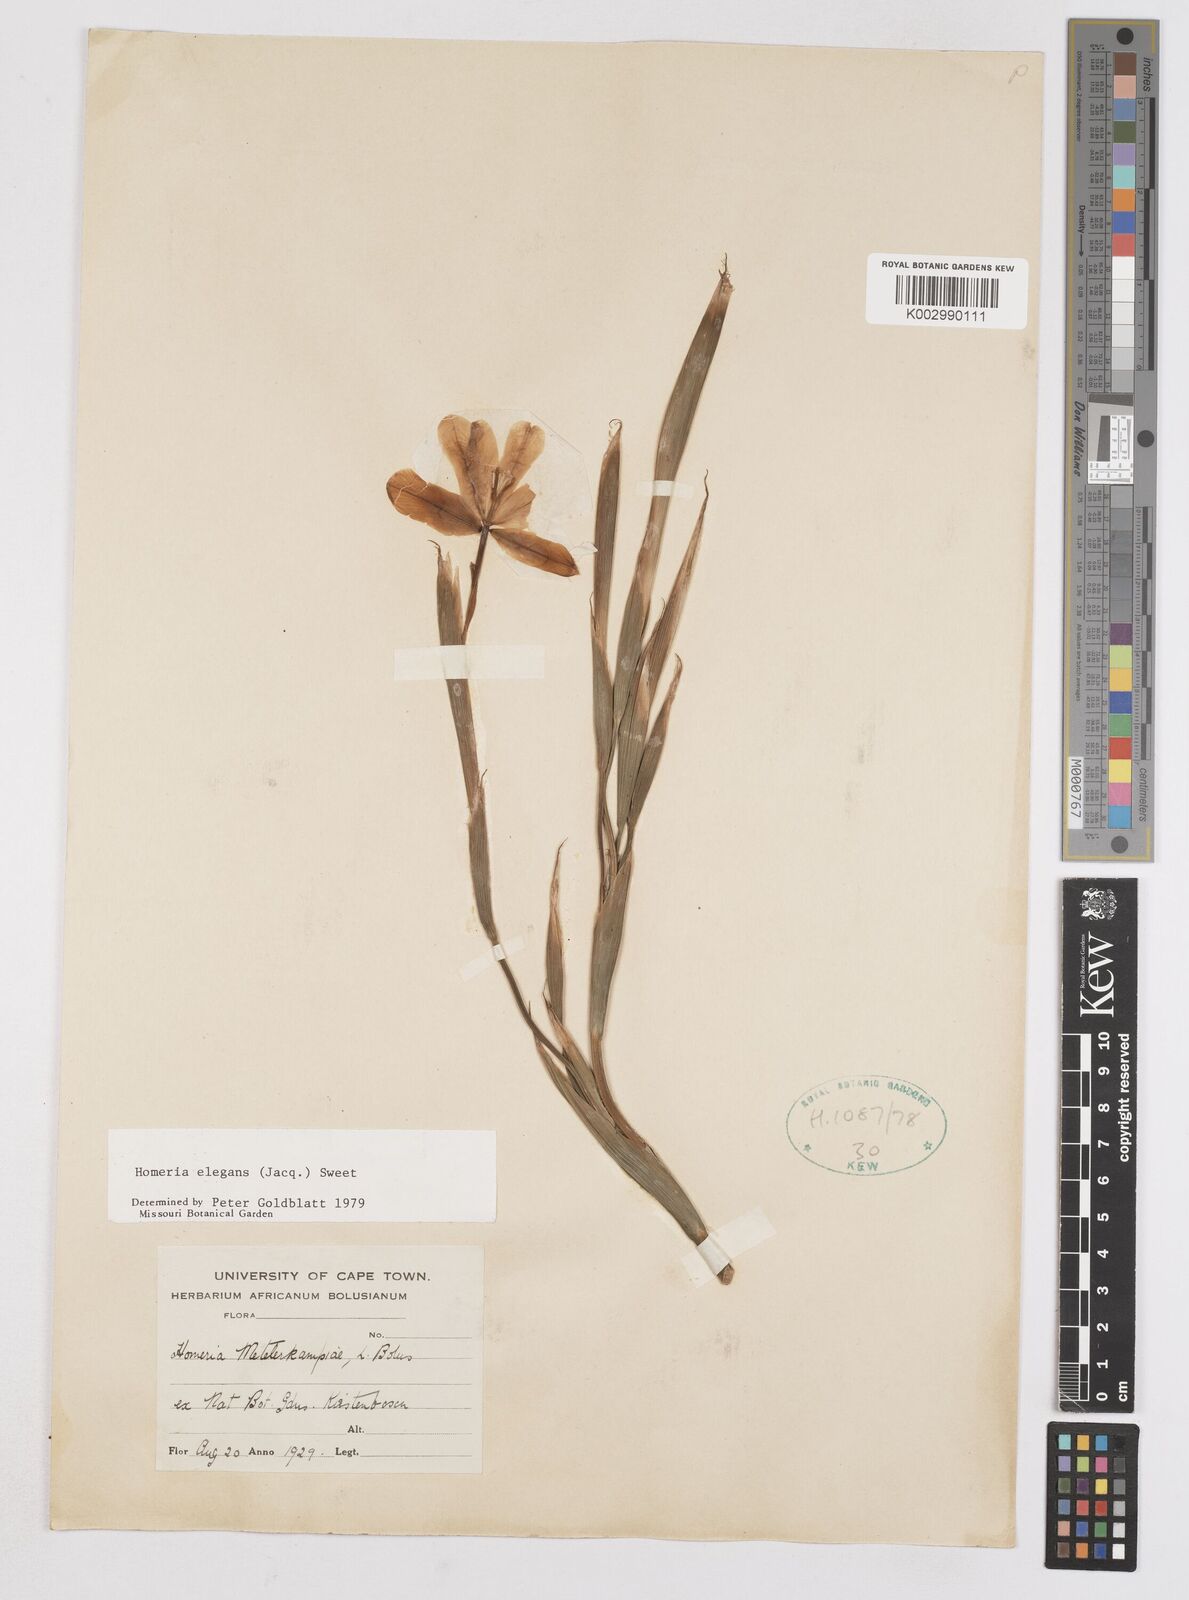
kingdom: Plantae
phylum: Tracheophyta
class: Liliopsida
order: Asparagales
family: Iridaceae
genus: Moraea
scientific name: Moraea elegans
